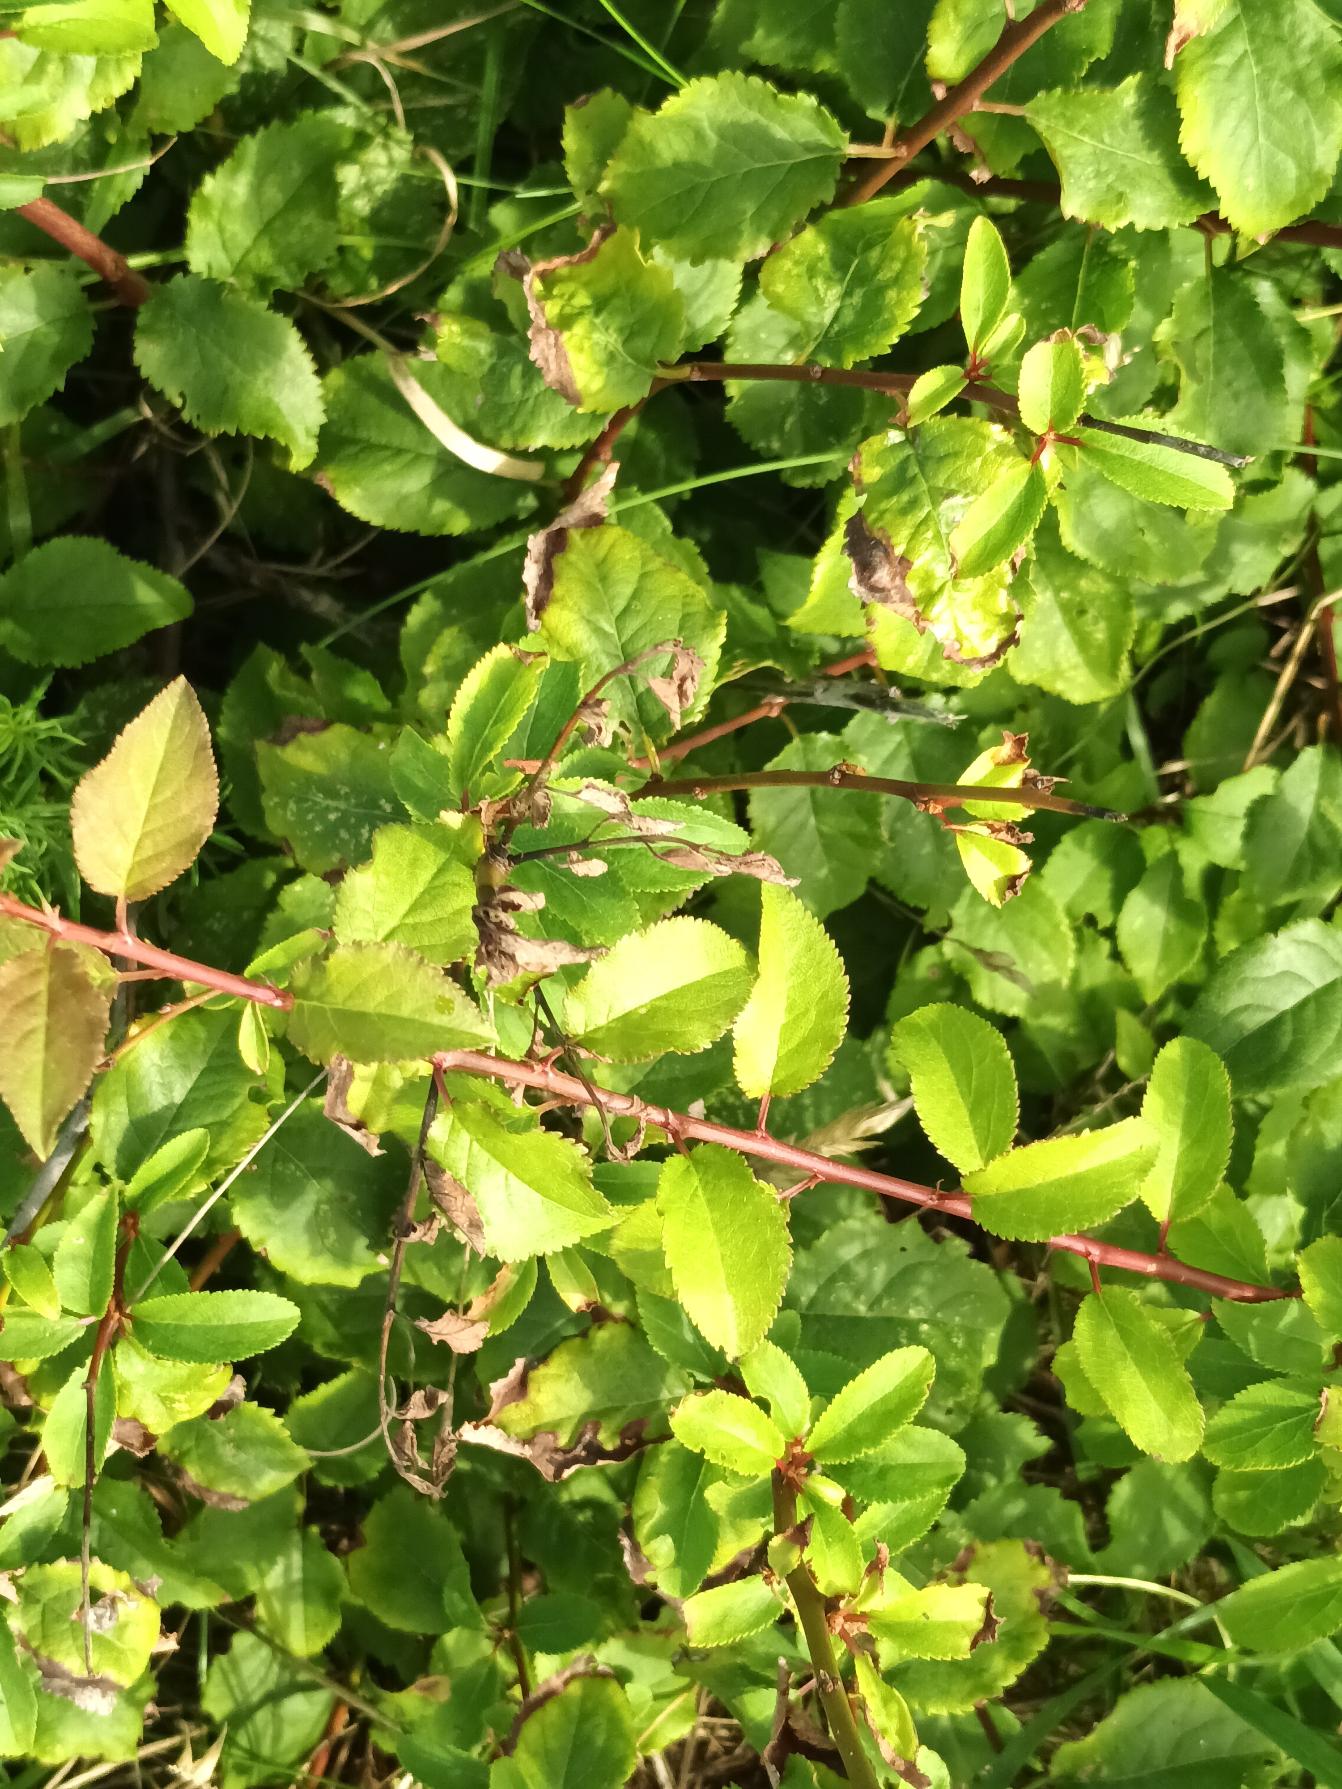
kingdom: Plantae
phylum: Tracheophyta
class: Magnoliopsida
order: Rosales
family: Rosaceae
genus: Prunus
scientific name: Prunus cerasifera
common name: Mirabel
